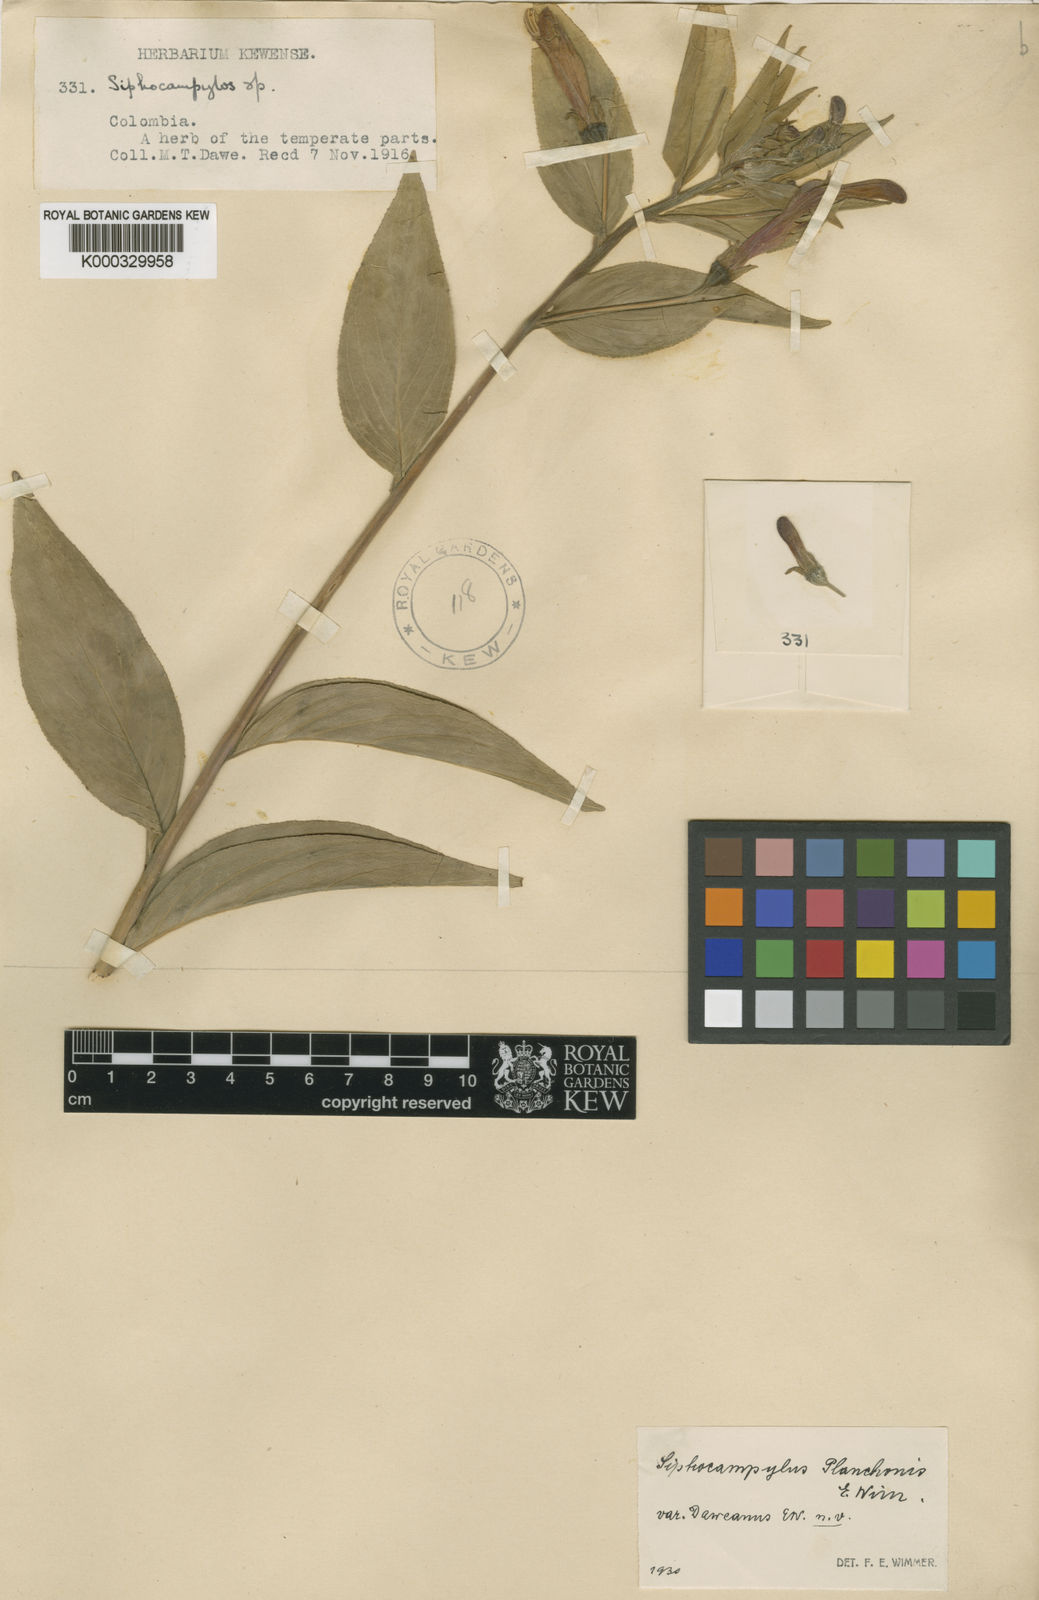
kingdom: Plantae
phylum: Tracheophyta
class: Magnoliopsida
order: Asterales
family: Campanulaceae
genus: Siphocampylus
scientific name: Siphocampylus polyphyllus
